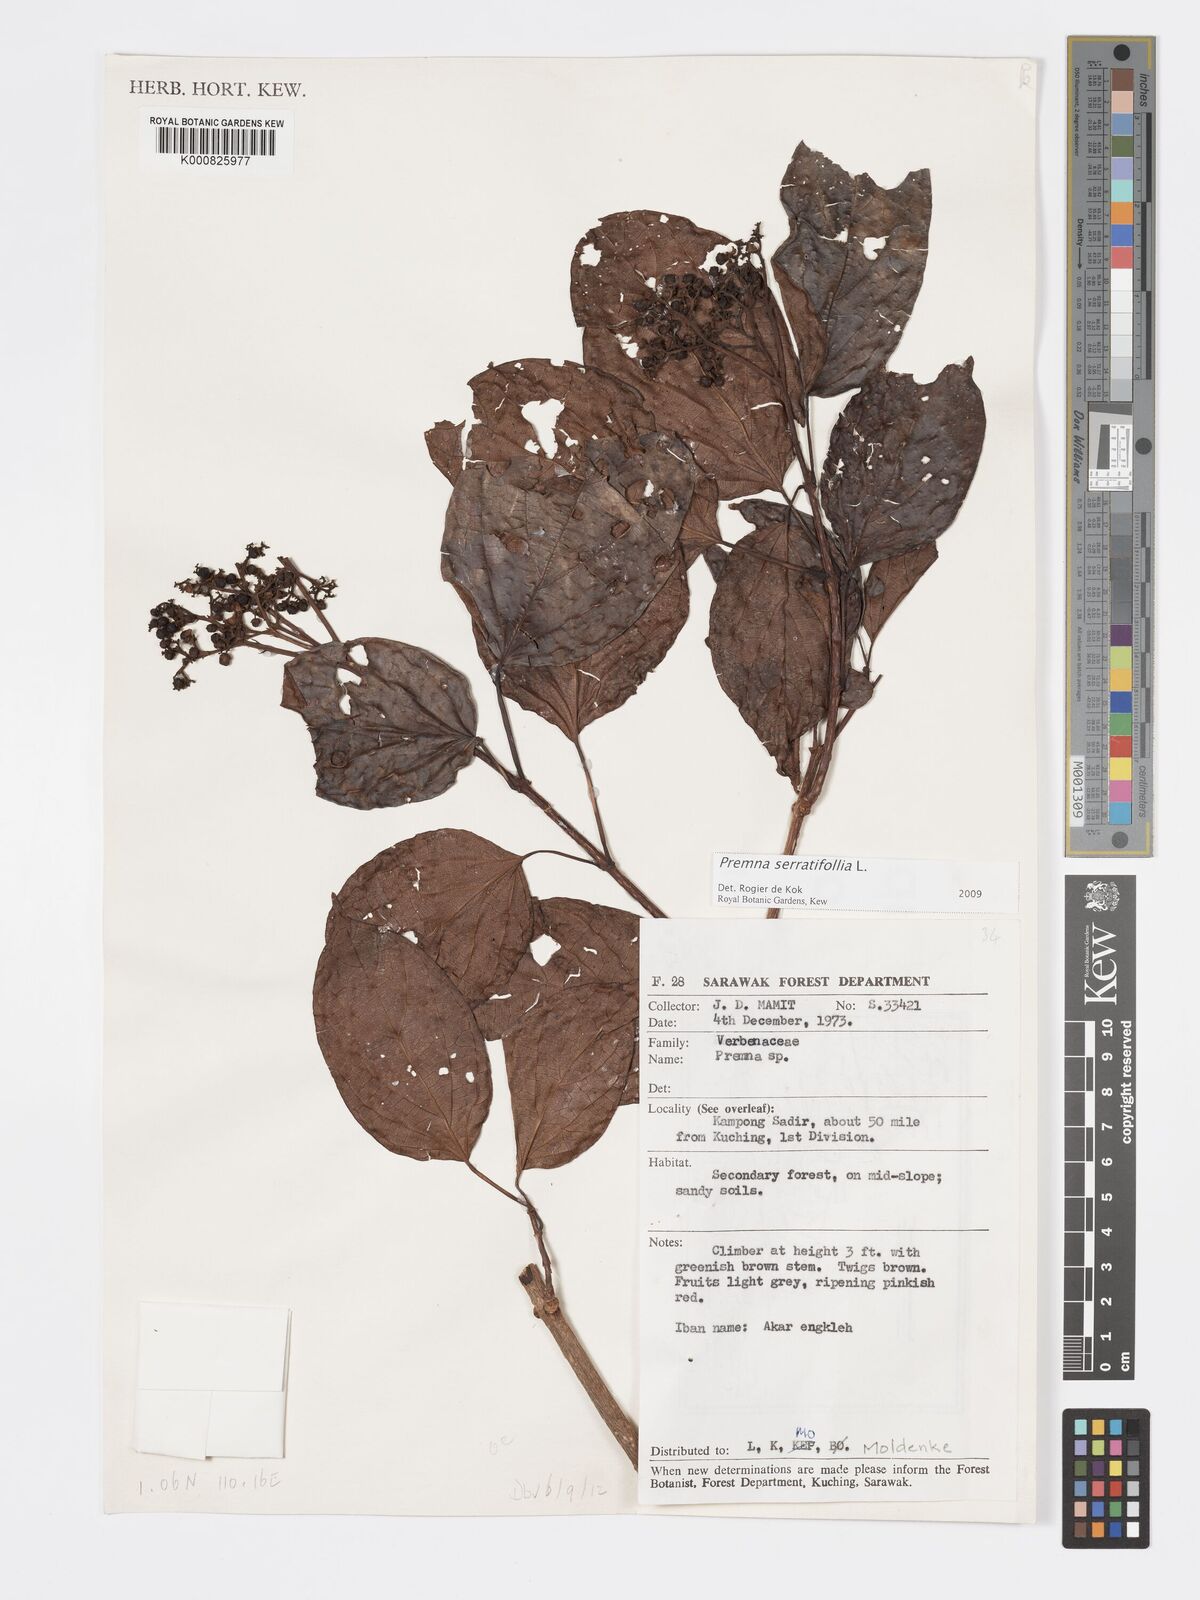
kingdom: Plantae
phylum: Tracheophyta
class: Magnoliopsida
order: Lamiales
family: Lamiaceae
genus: Premna
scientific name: Premna serratifolia
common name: Bastard guelder
